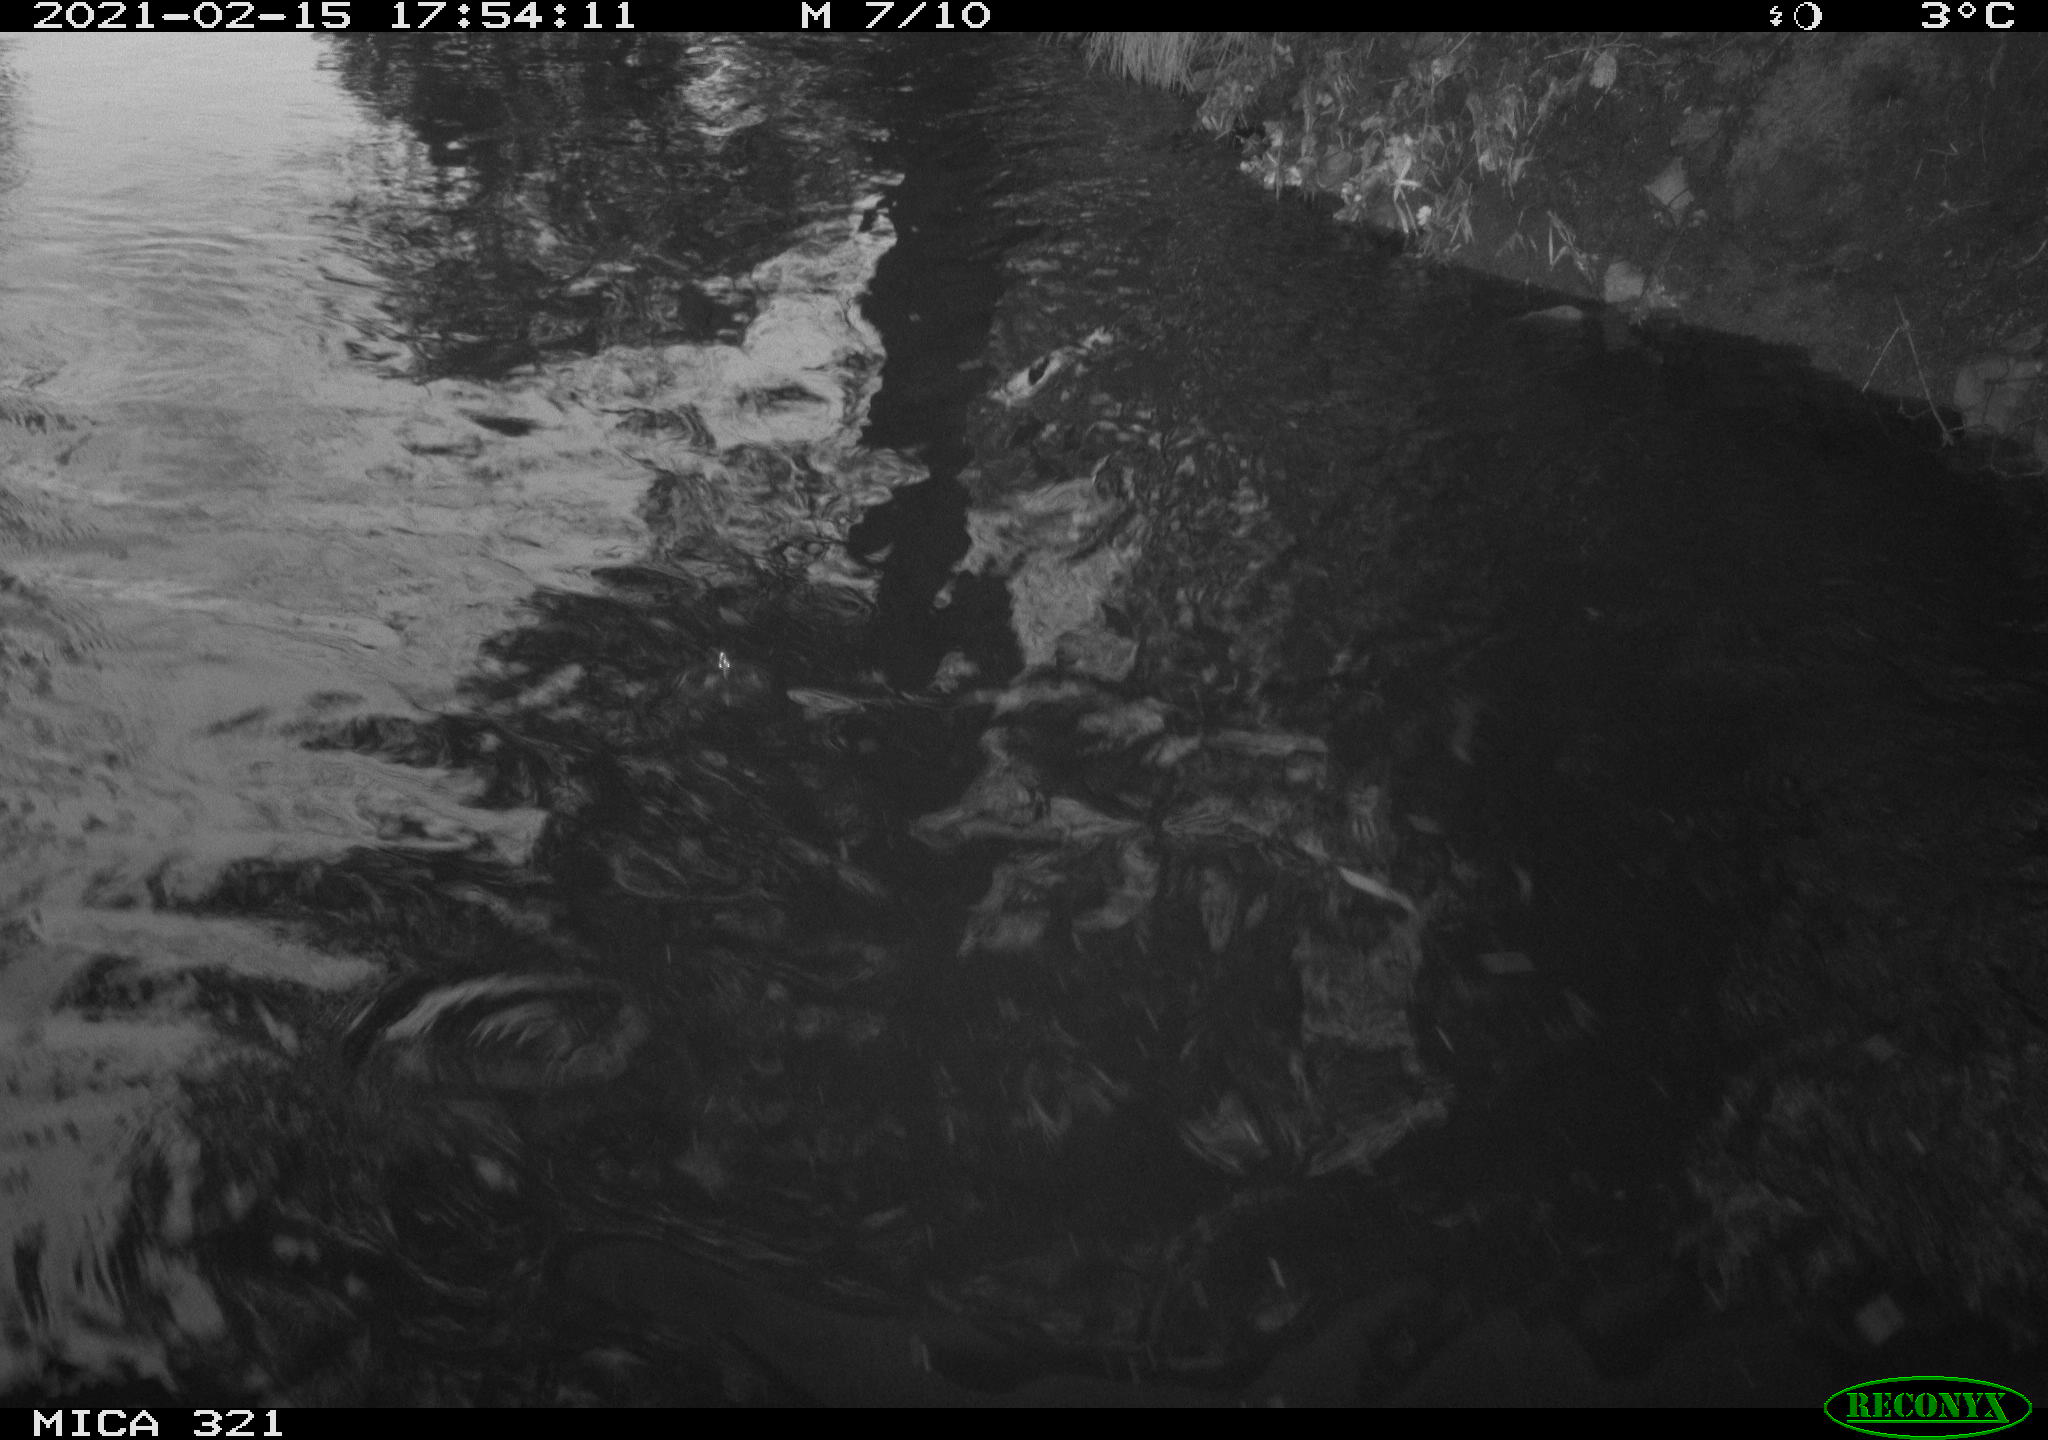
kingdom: Animalia
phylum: Chordata
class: Aves
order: Anseriformes
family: Anatidae
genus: Anas
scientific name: Anas platyrhynchos
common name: Mallard
